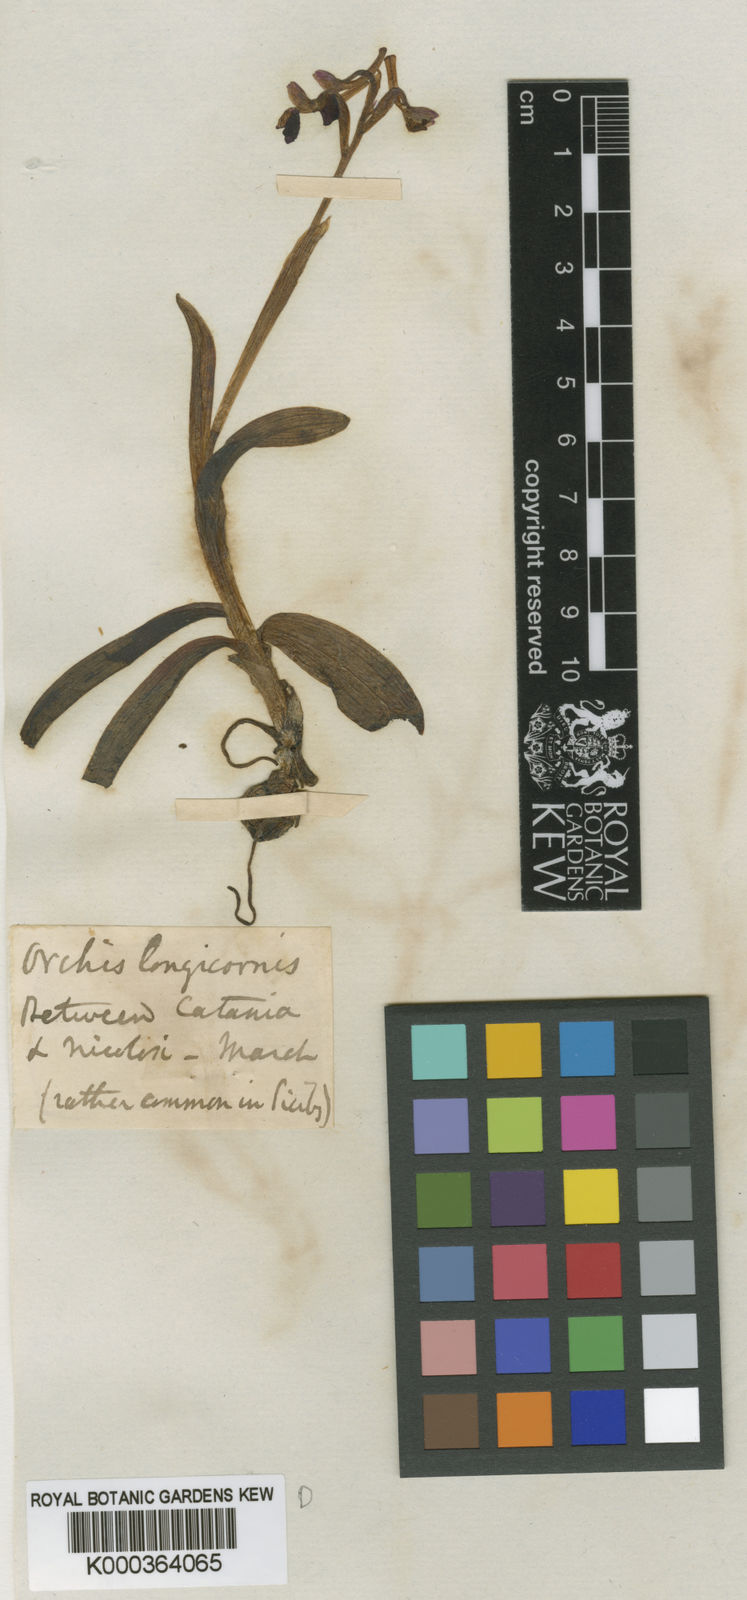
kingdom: Plantae
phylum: Tracheophyta
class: Liliopsida
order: Asparagales
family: Orchidaceae
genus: Anacamptis
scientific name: Anacamptis
